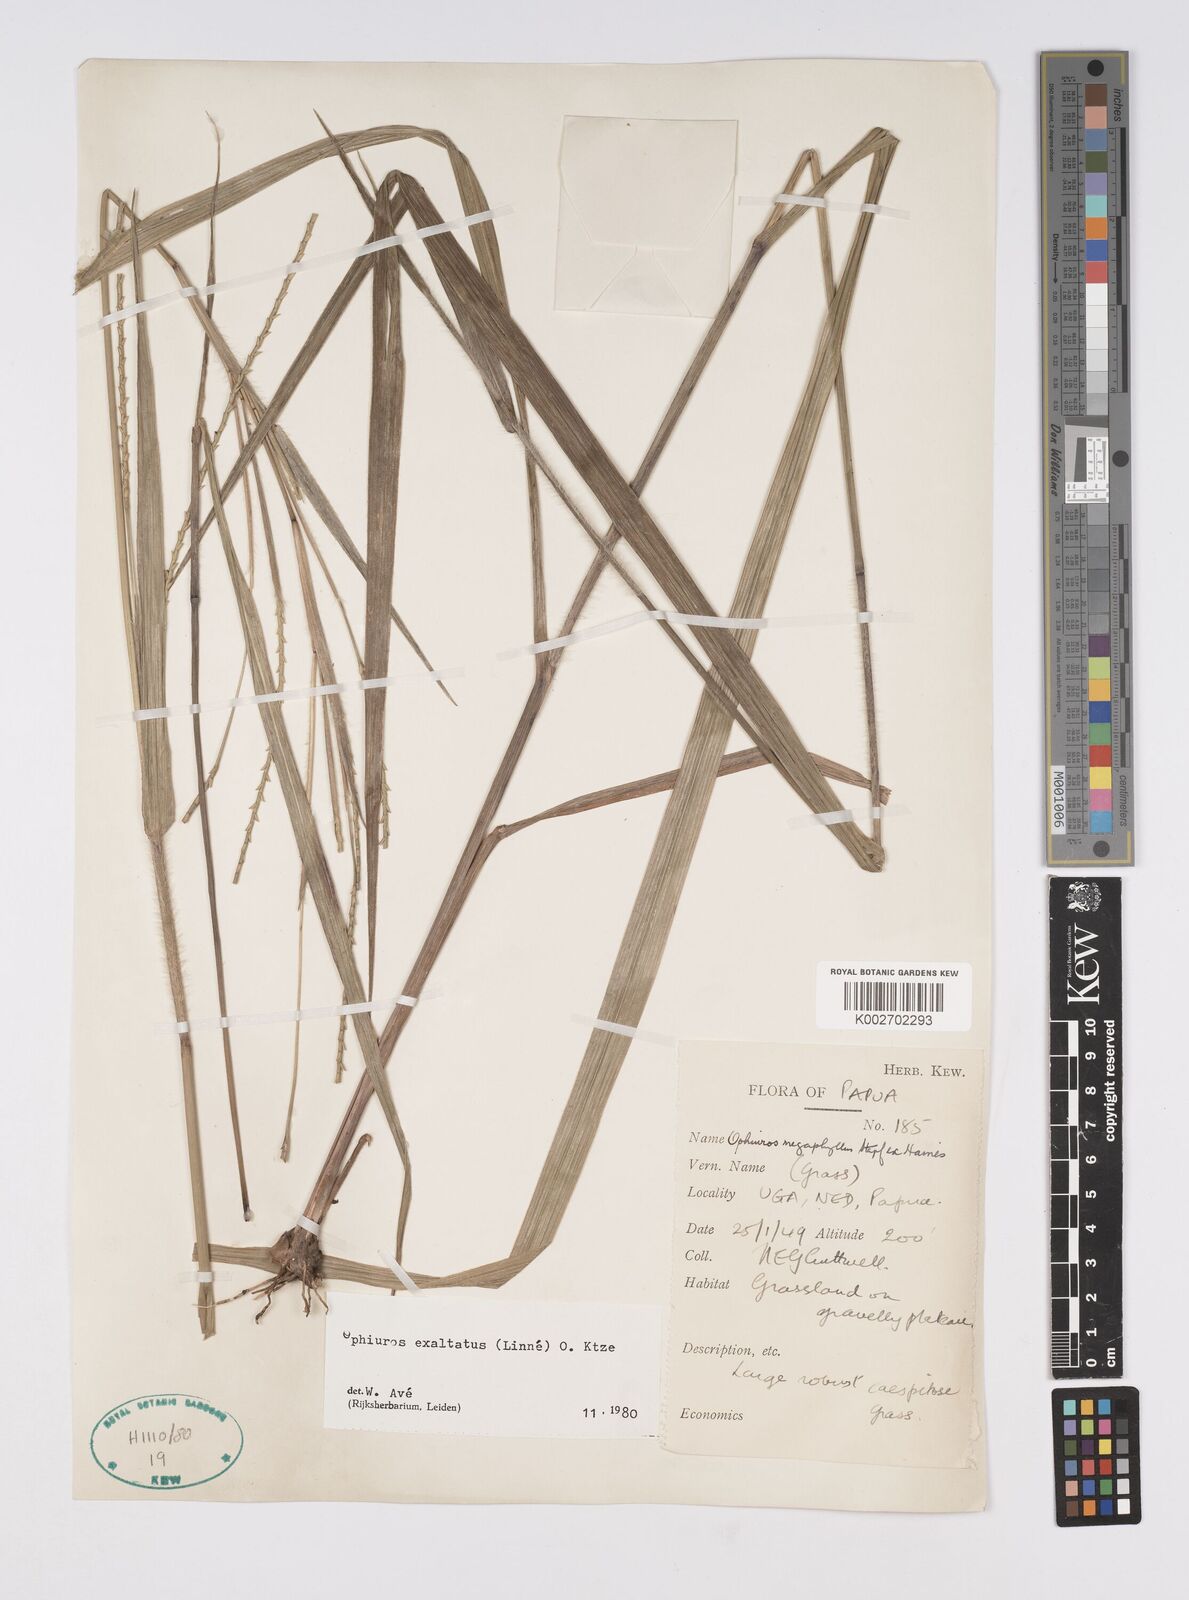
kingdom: Plantae
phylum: Tracheophyta
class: Liliopsida
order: Poales
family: Poaceae
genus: Ophiuros
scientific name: Ophiuros megaphyllus
